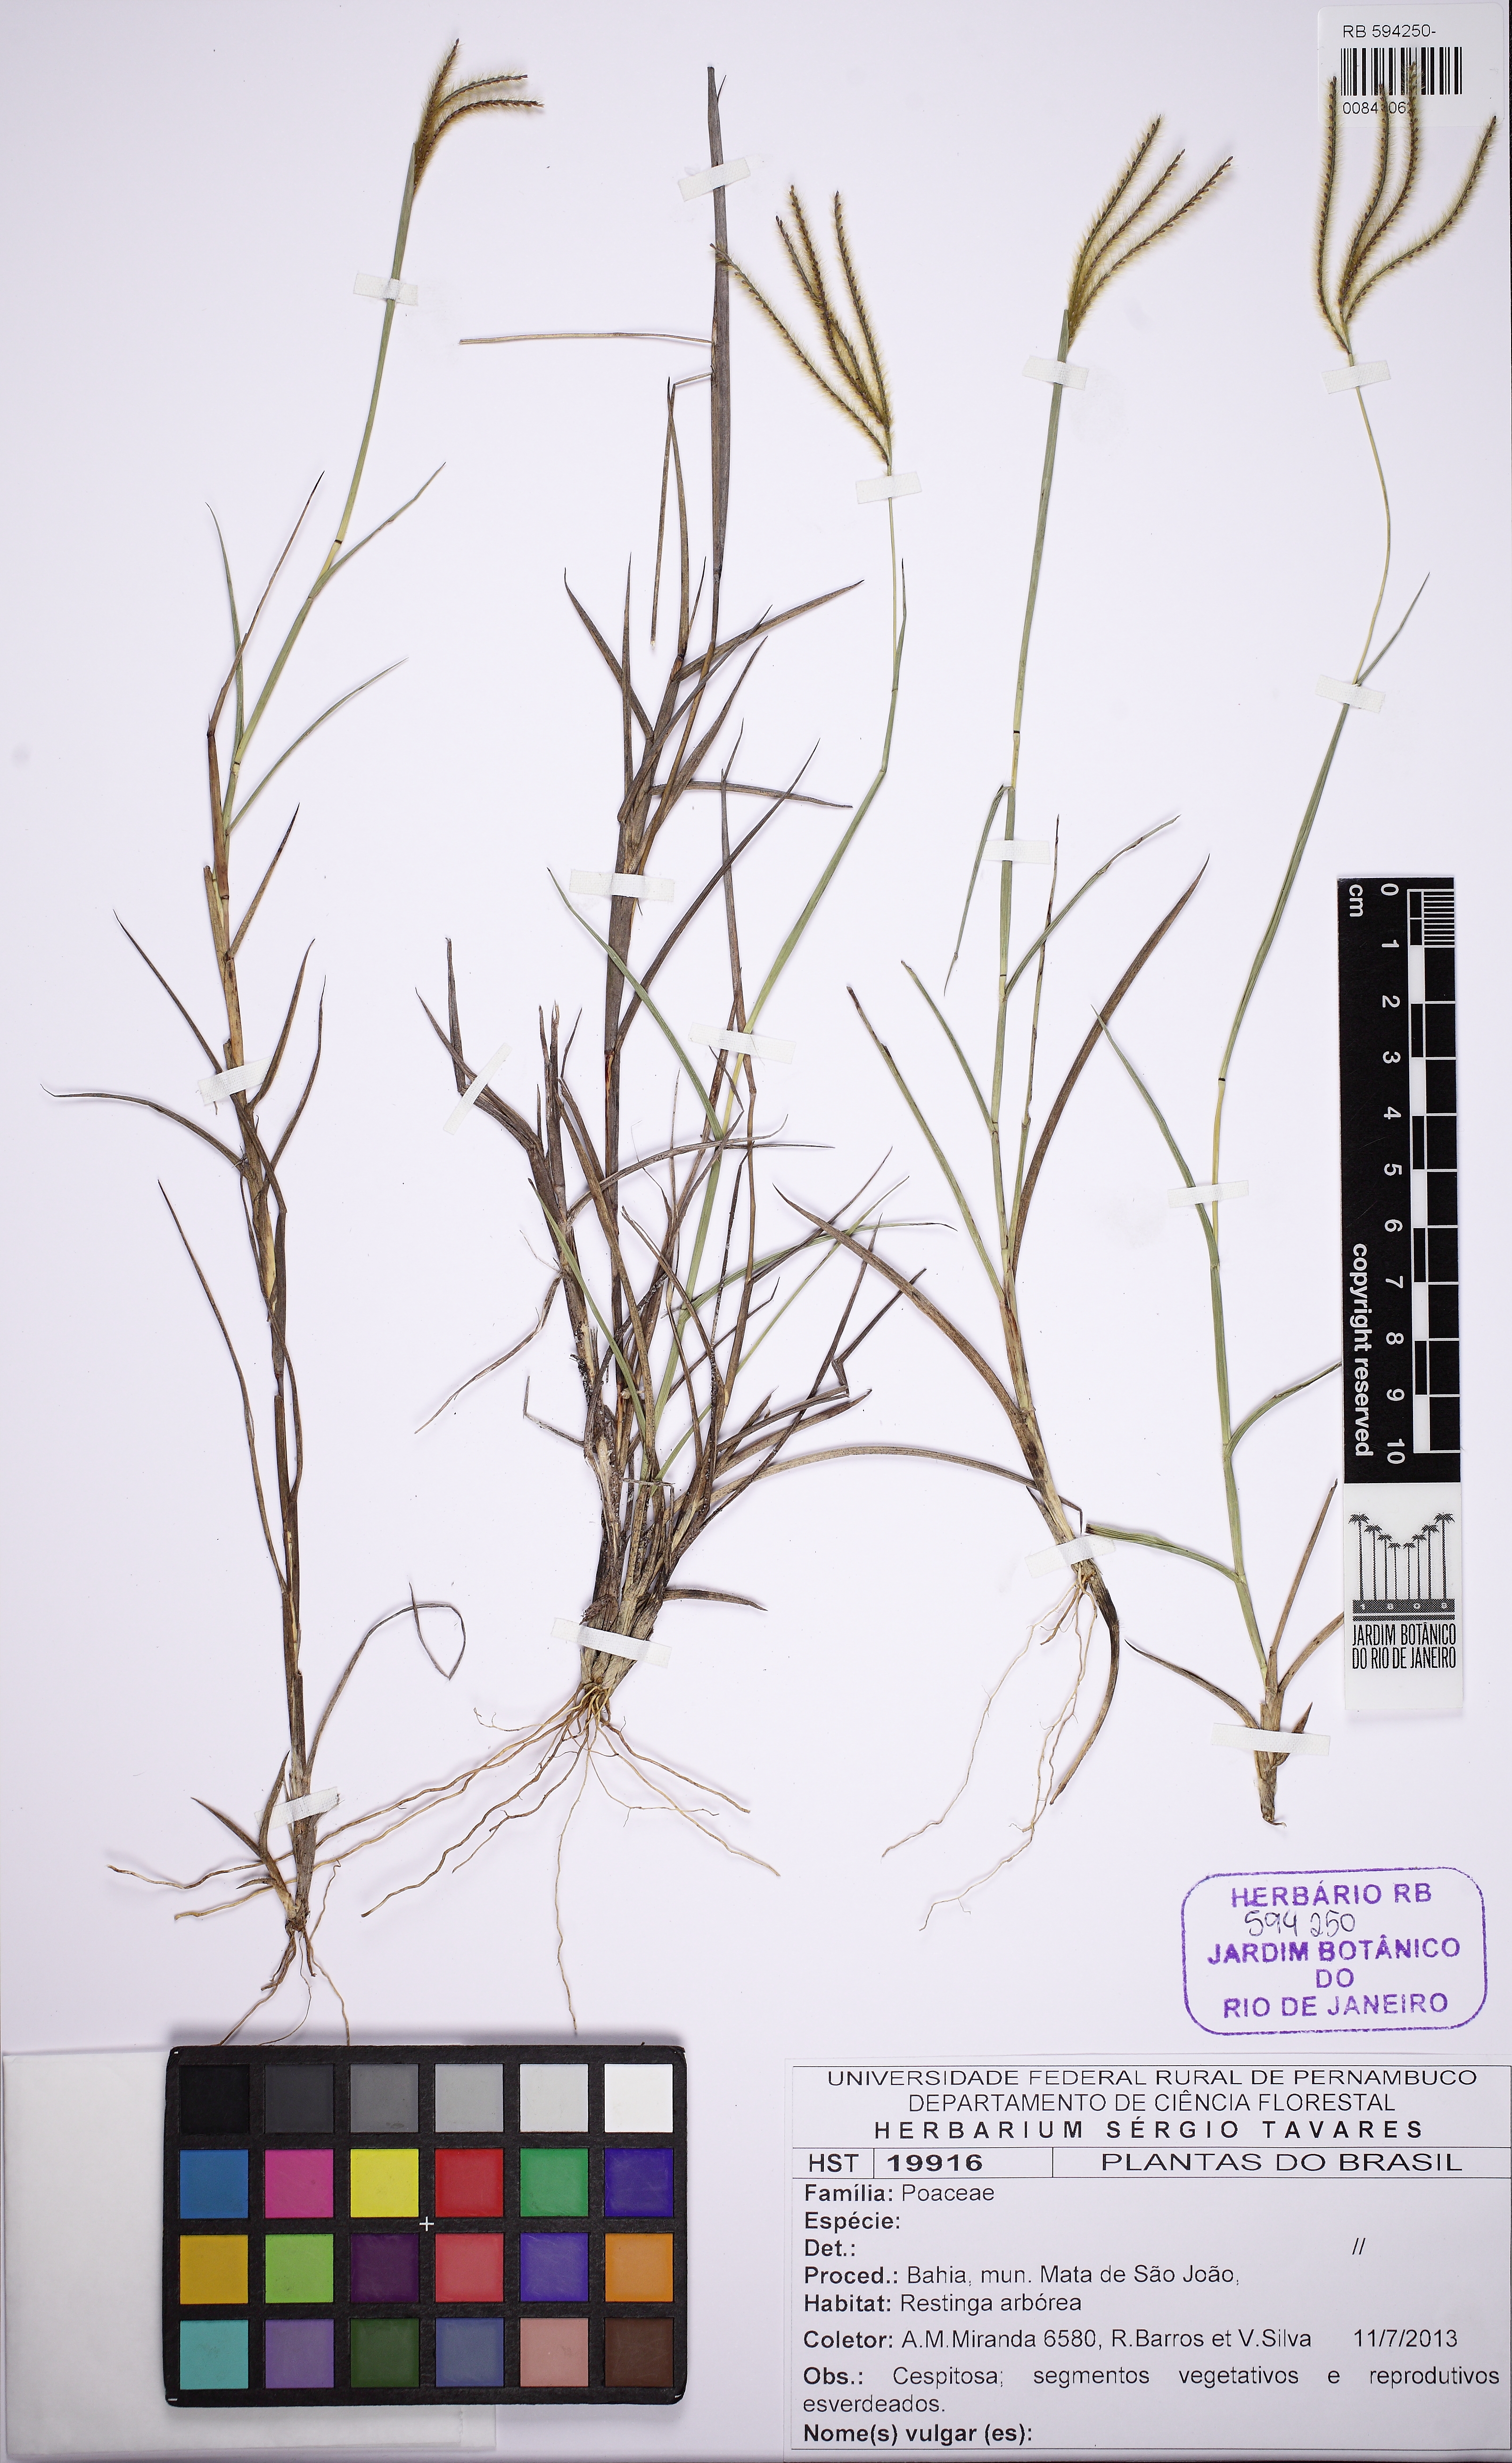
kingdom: Plantae
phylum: Tracheophyta
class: Liliopsida
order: Poales
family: Poaceae
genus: Axonopus
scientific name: Axonopus aureus
